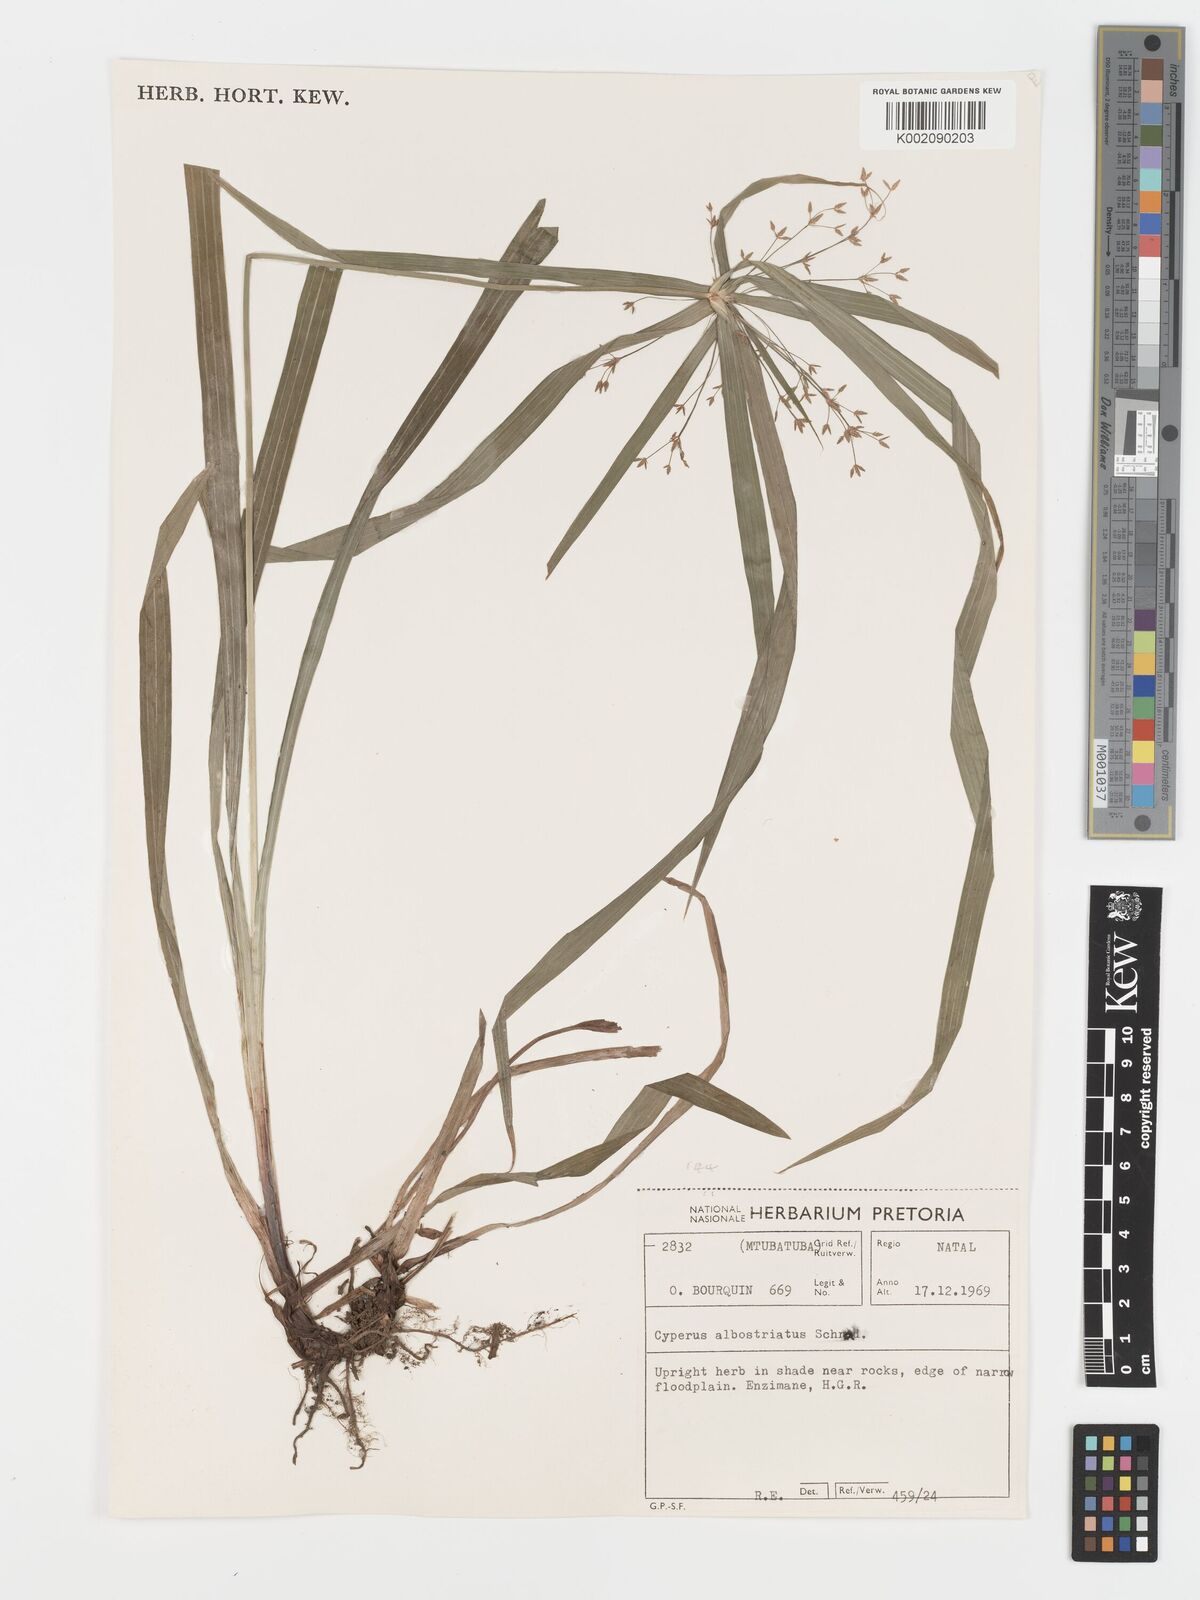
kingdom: Plantae
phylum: Tracheophyta
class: Liliopsida
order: Poales
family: Cyperaceae
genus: Cyperus
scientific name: Cyperus albostriatus
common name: Dwarf umbrella-grass
